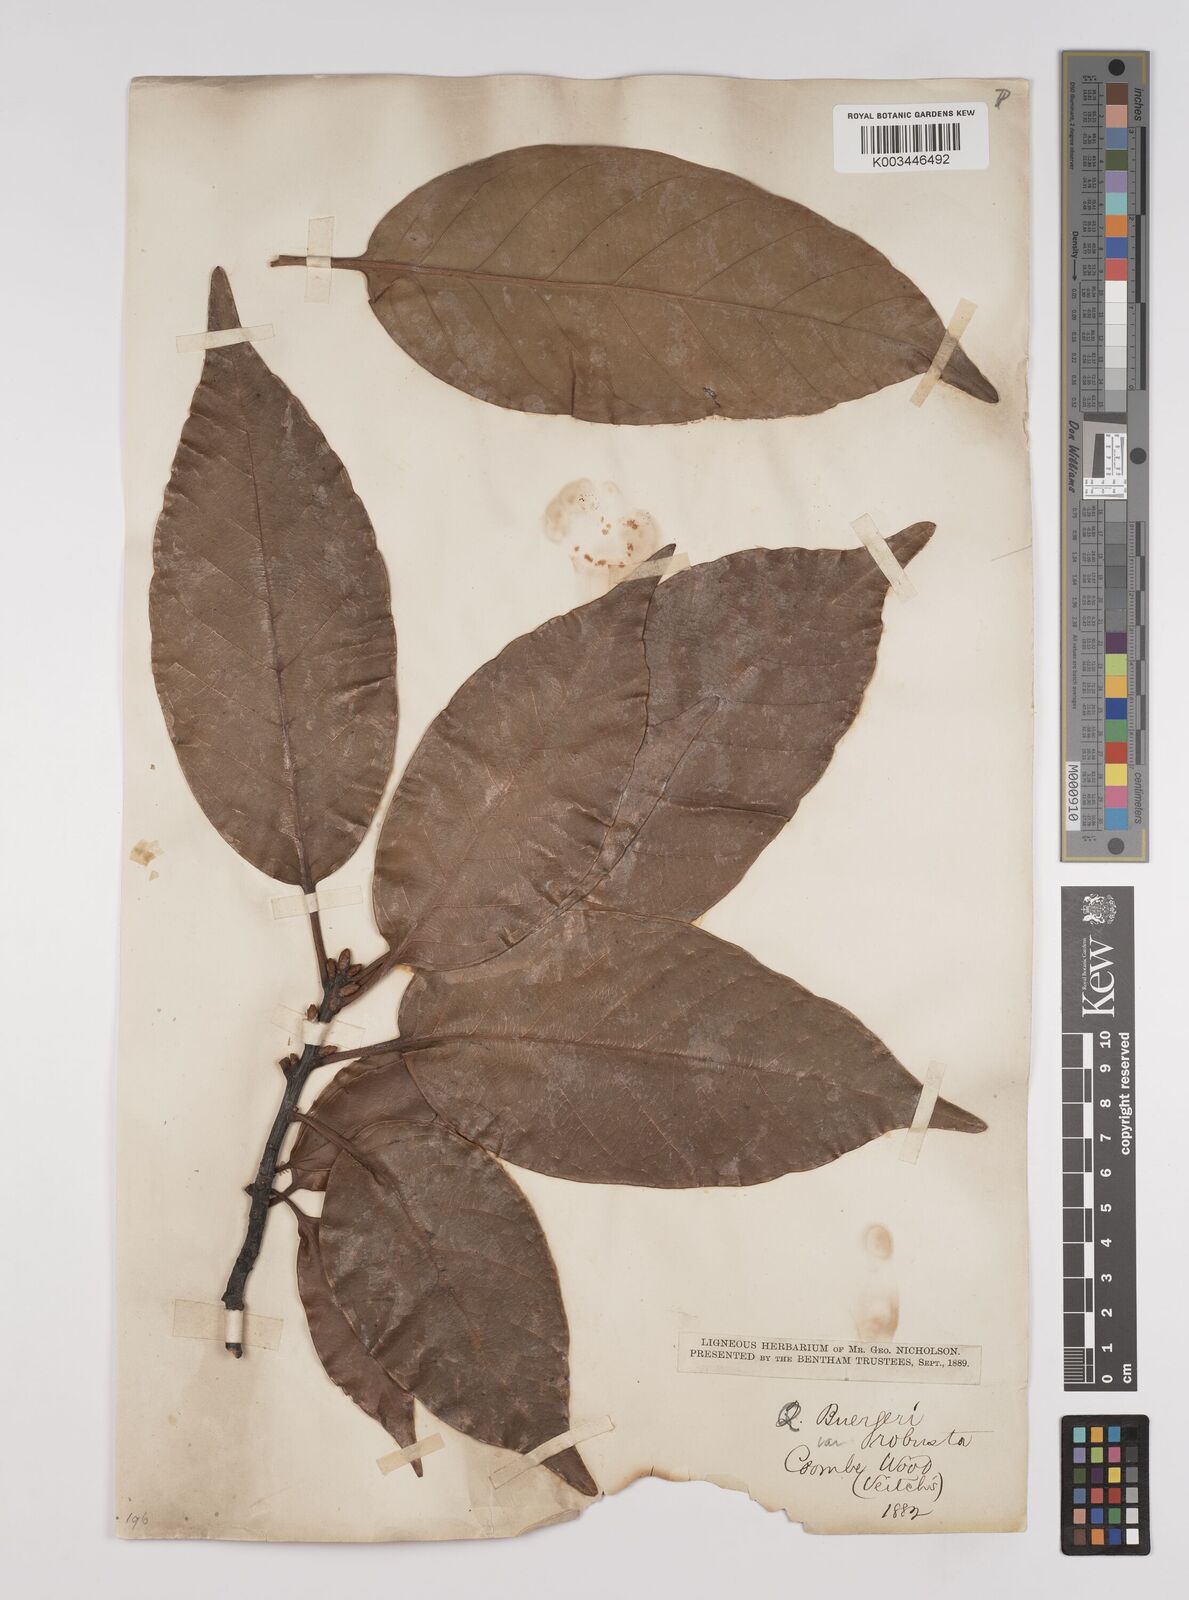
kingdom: Plantae
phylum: Tracheophyta
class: Magnoliopsida
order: Fagales
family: Fagaceae
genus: Quercus
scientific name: Quercus coccinea
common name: Scarlet oak
